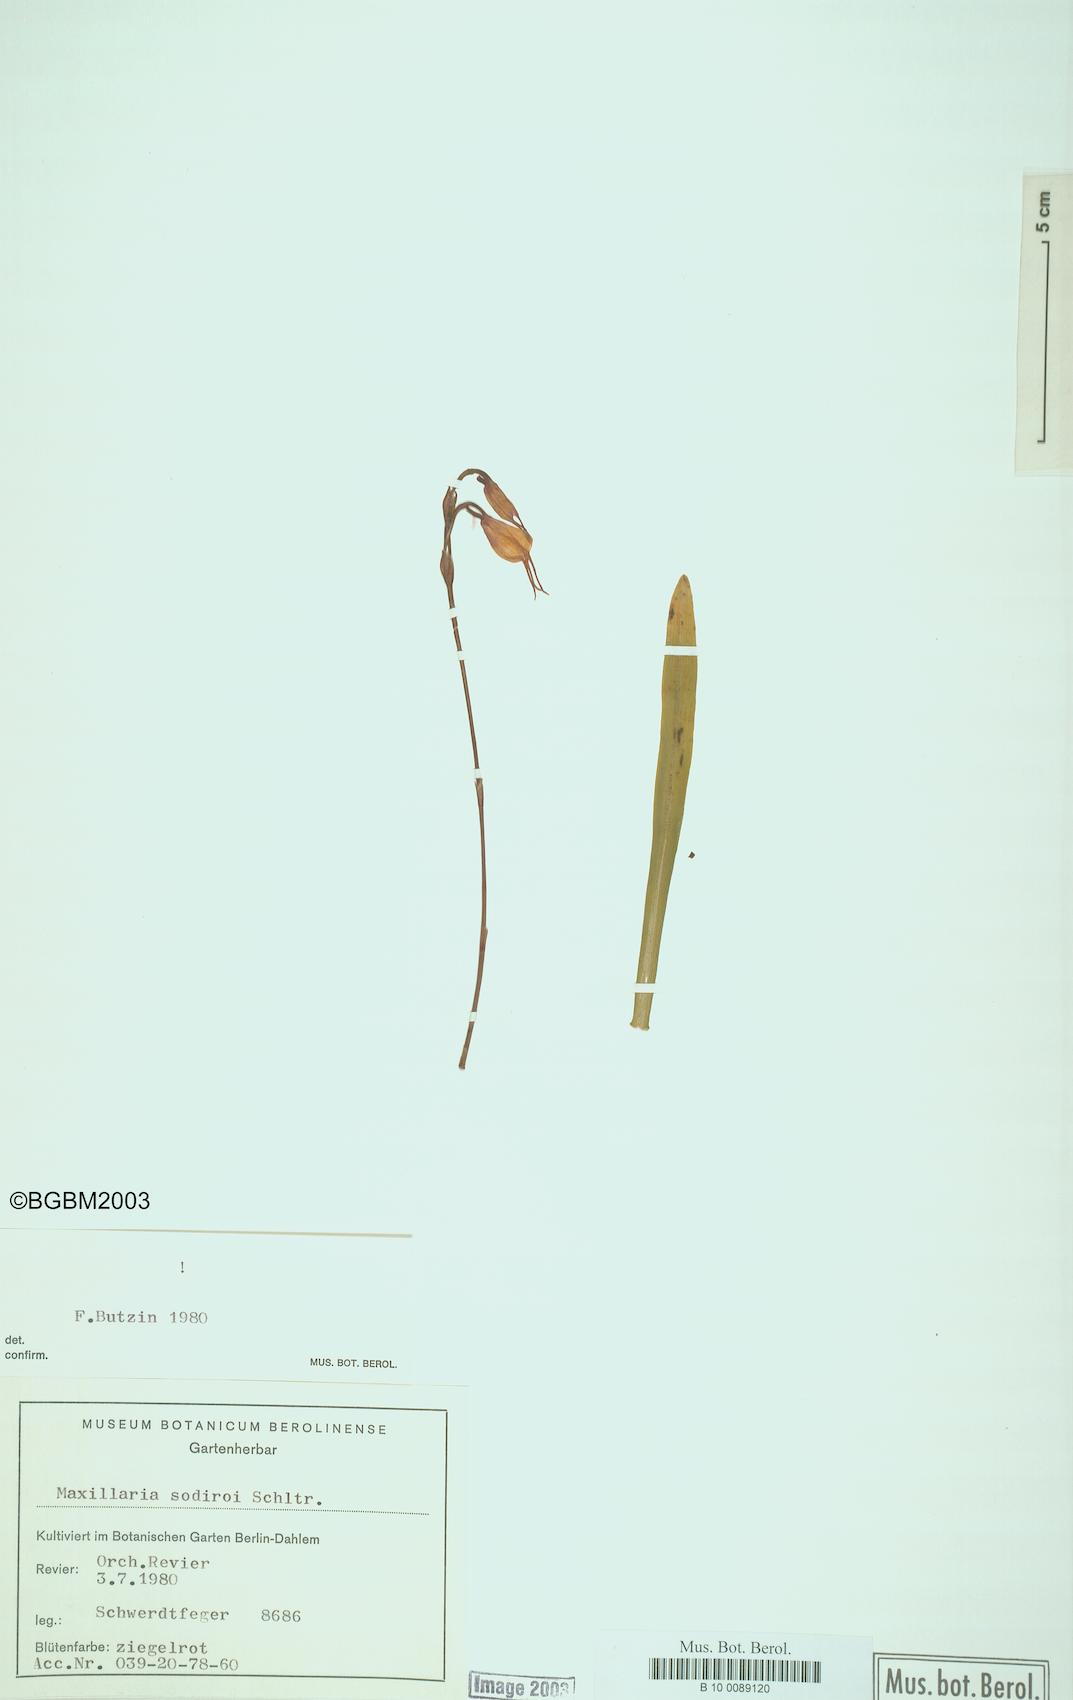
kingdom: Plantae
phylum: Tracheophyta
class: Liliopsida
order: Asparagales
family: Orchidaceae
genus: Dracula
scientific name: Dracula sodiroi
